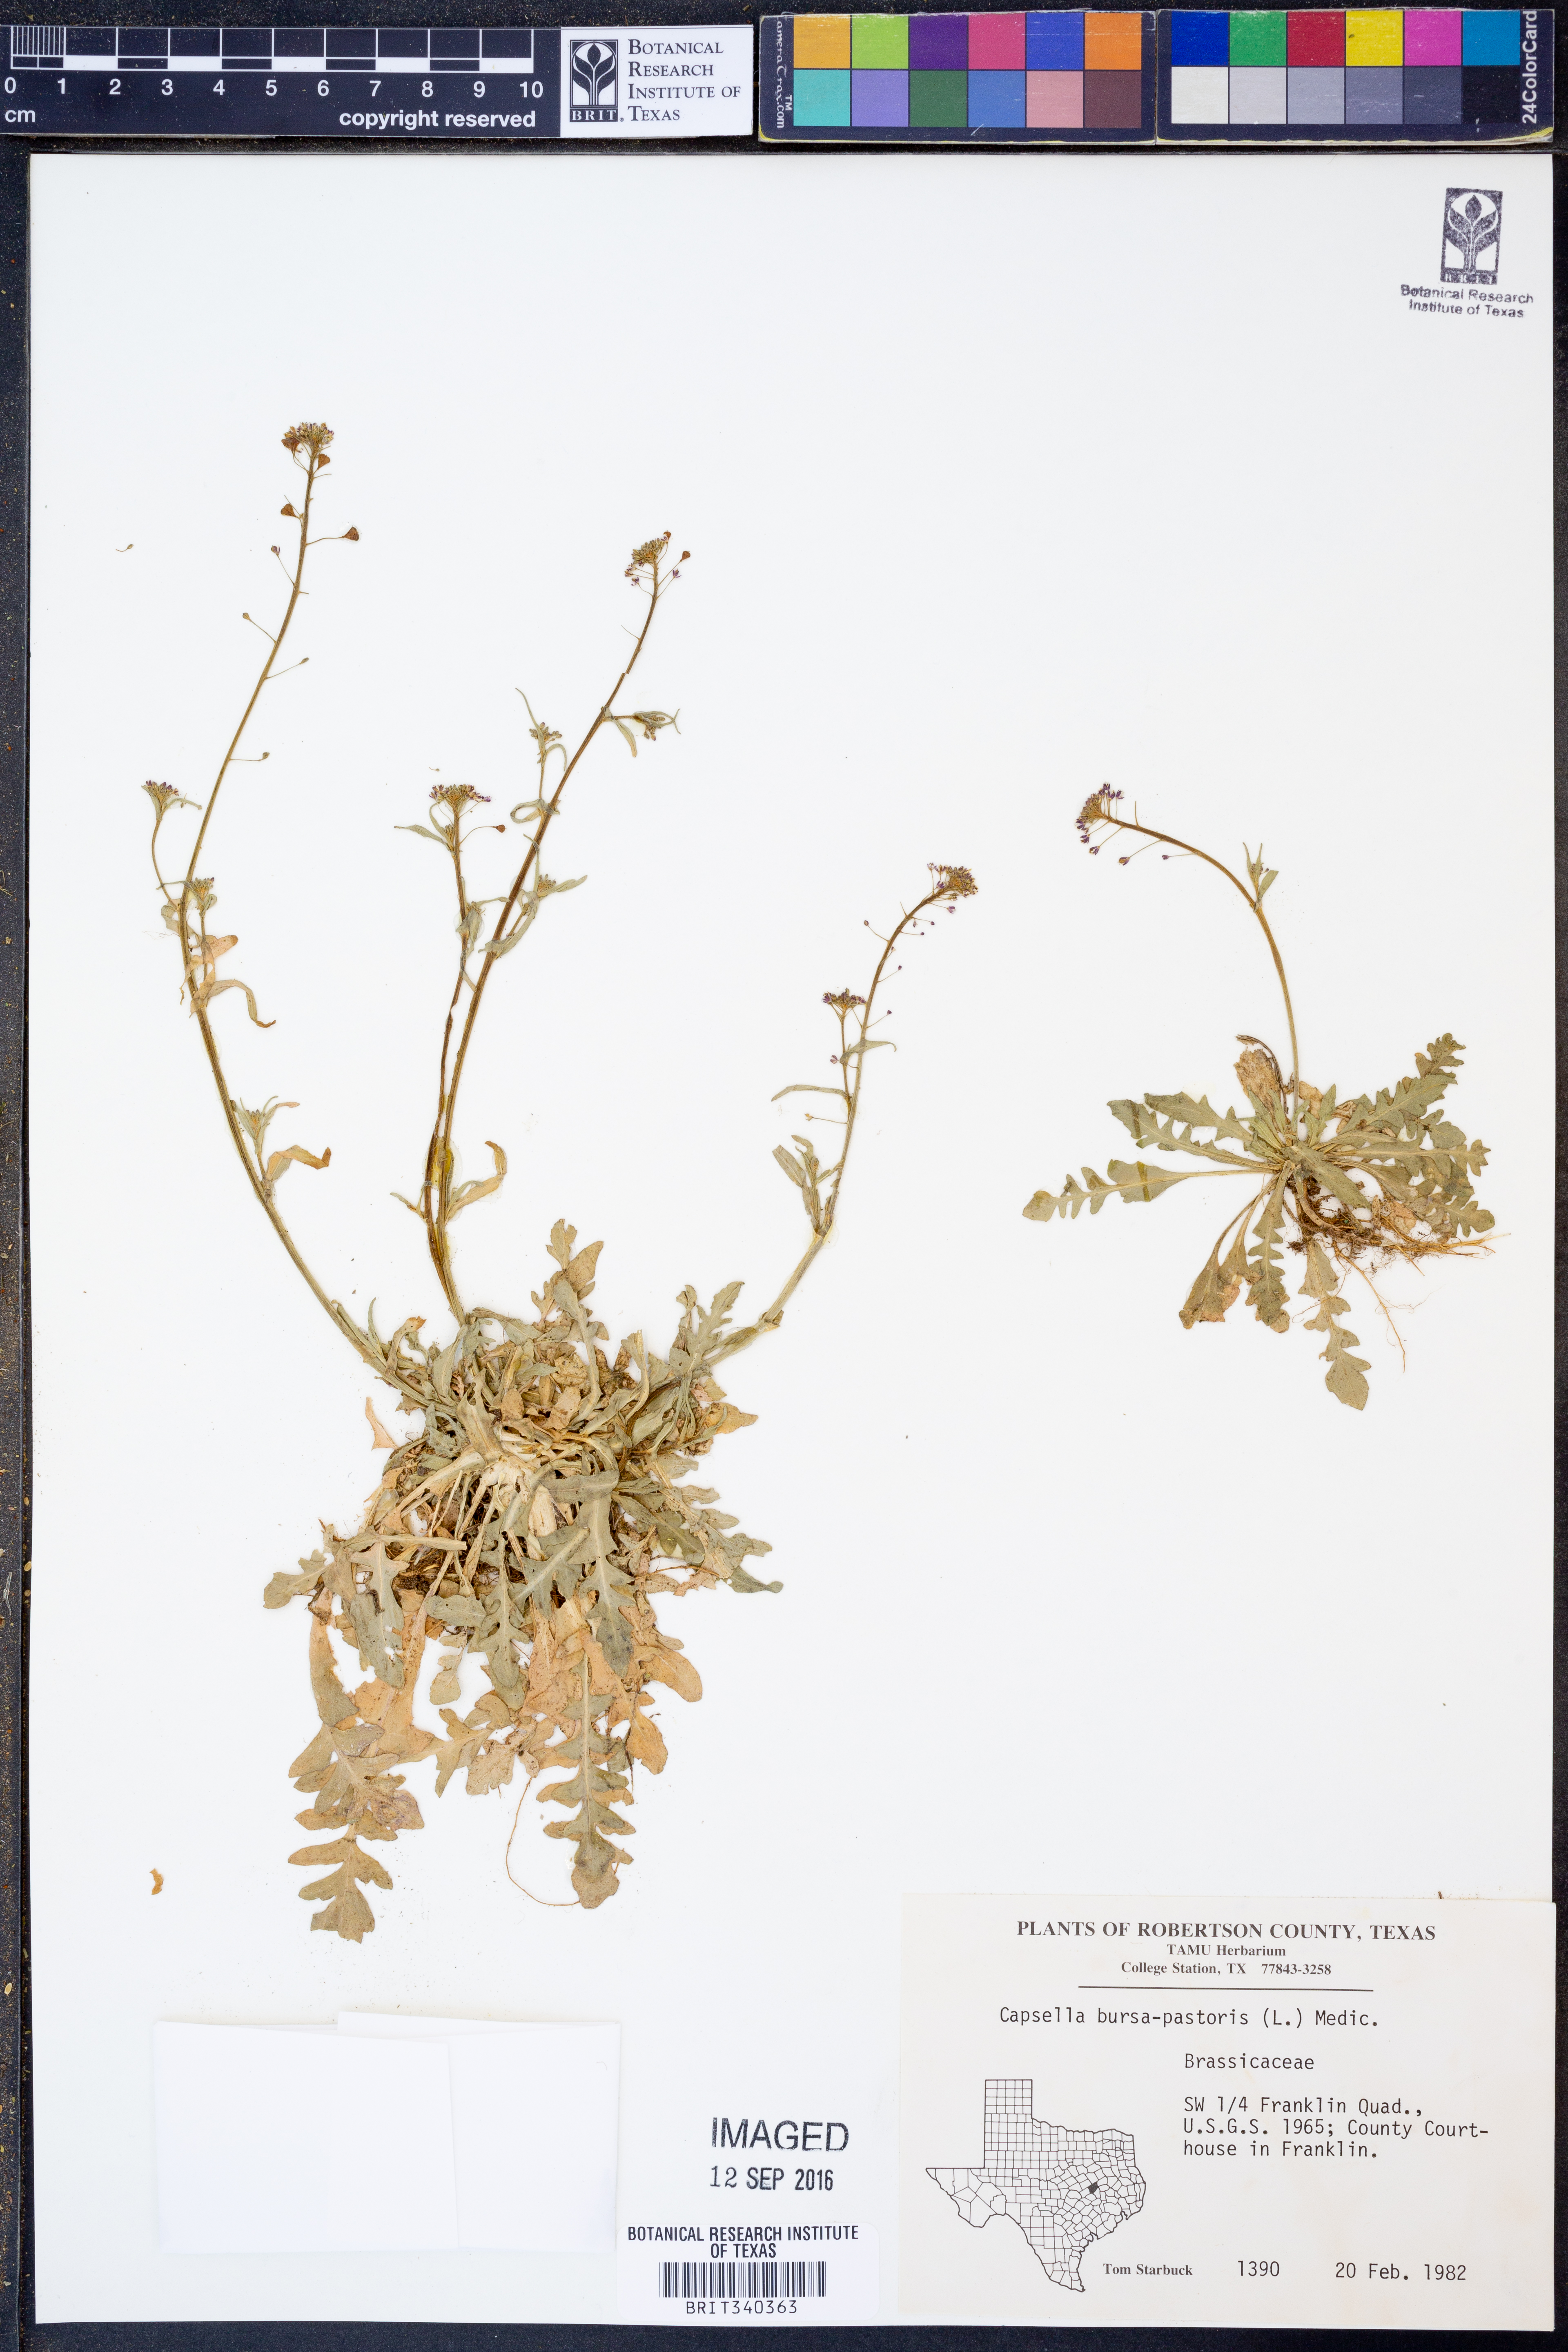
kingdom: Plantae
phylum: Tracheophyta
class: Magnoliopsida
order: Brassicales
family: Brassicaceae
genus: Capsella
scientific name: Capsella bursa-pastoris
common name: Shepherd's purse
